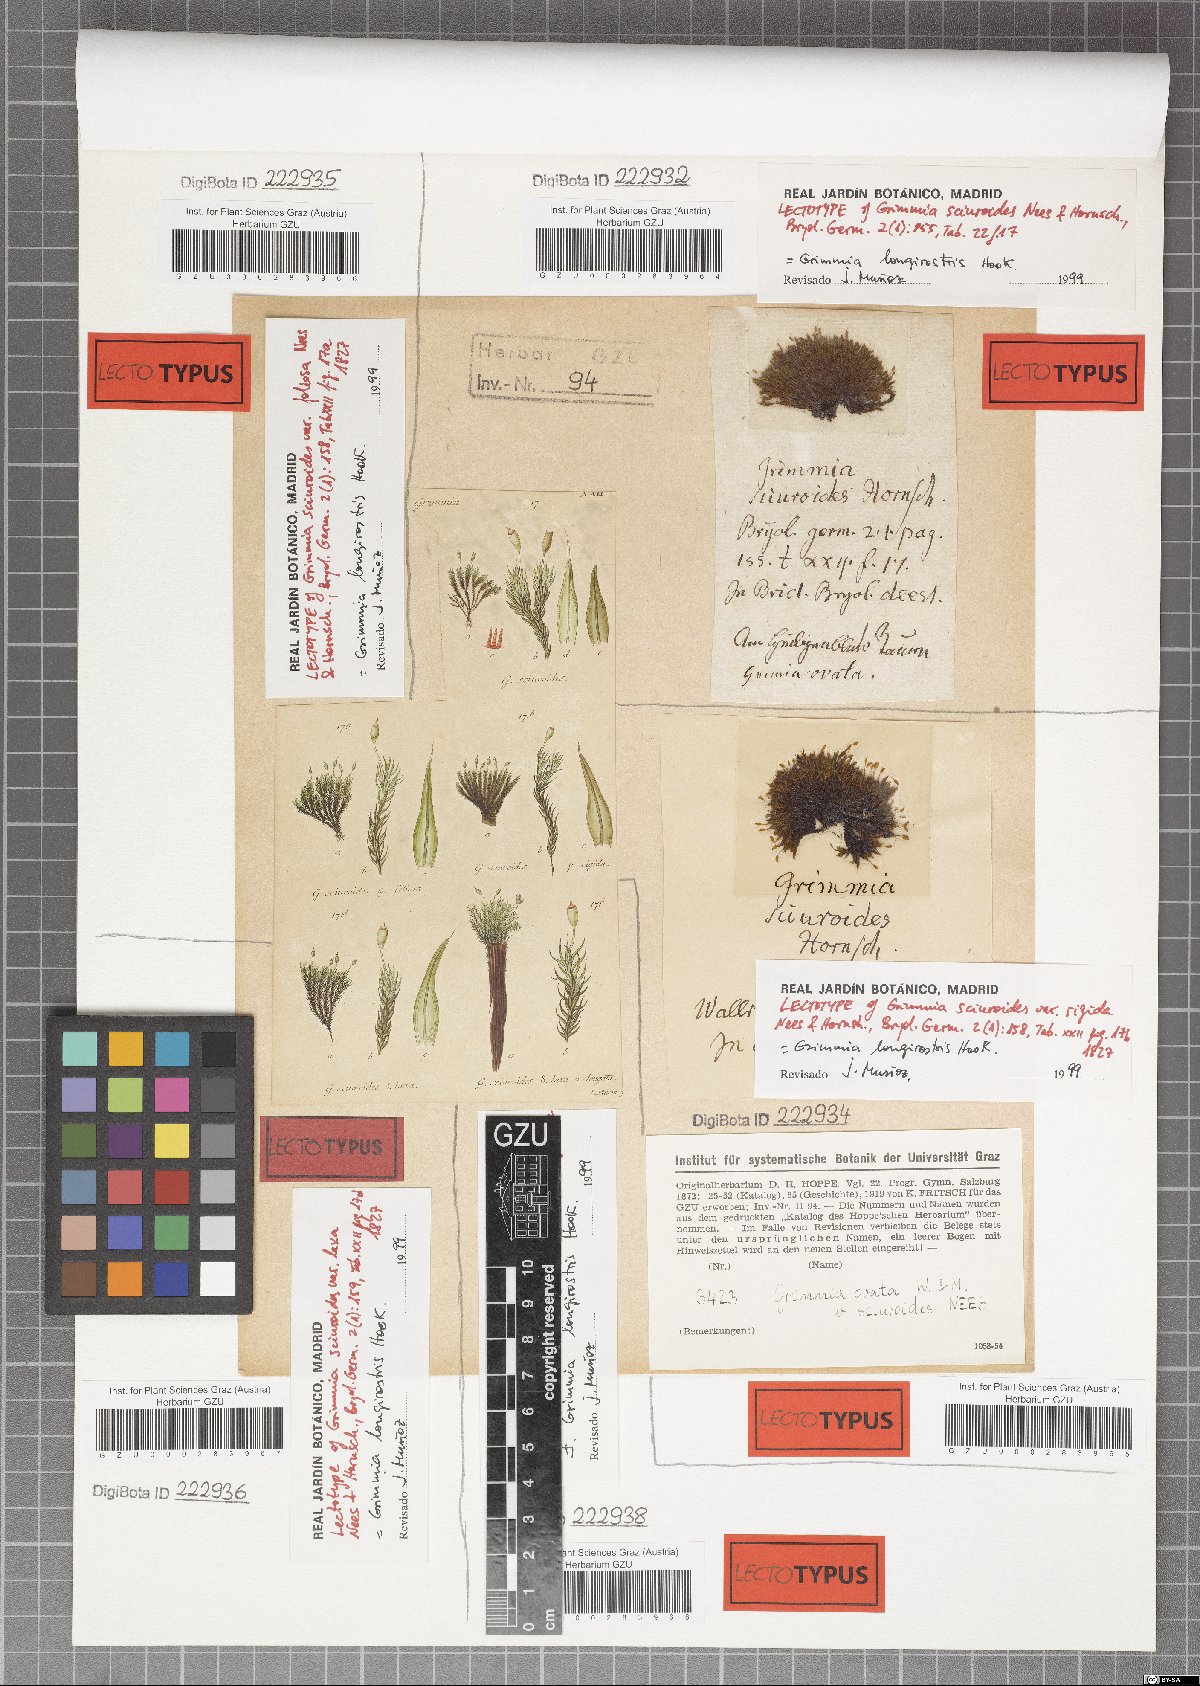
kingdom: Plantae
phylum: Bryophyta
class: Bryopsida
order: Grimmiales
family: Grimmiaceae
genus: Grimmia
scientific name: Grimmia longirostris
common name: Long-beaked grimmia
